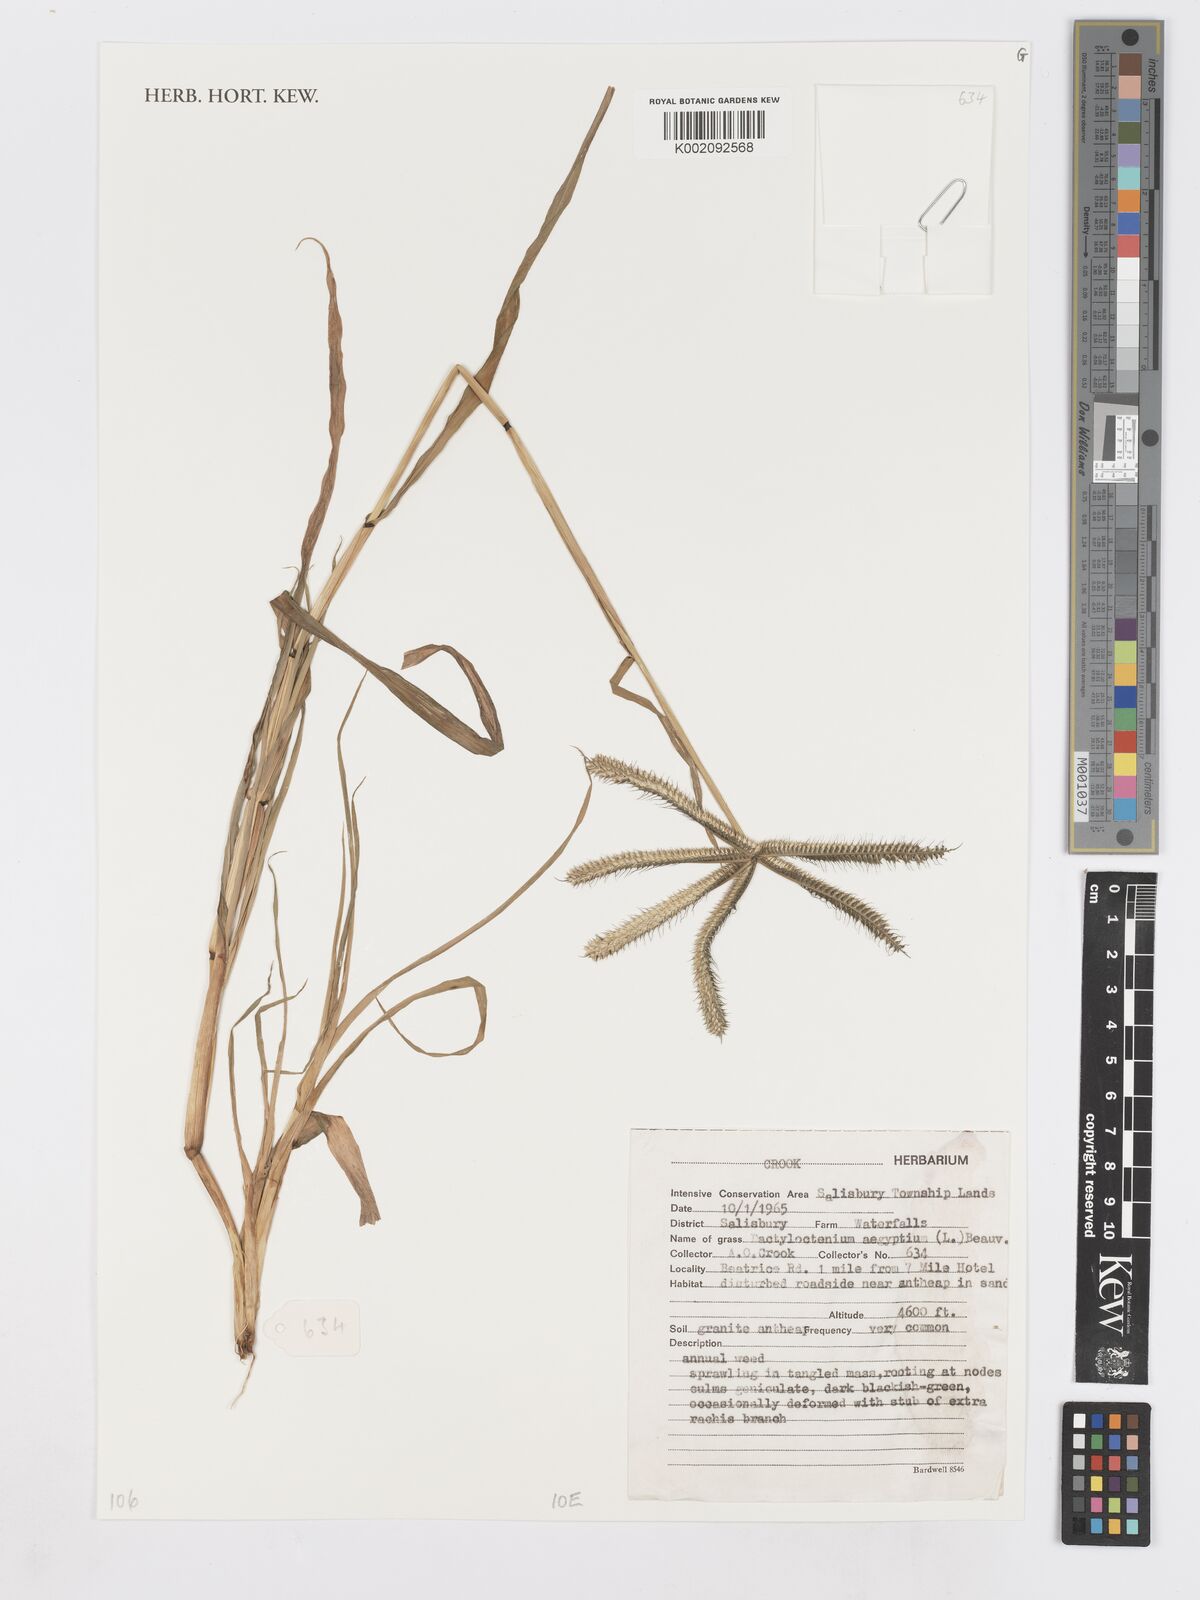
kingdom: Plantae
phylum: Tracheophyta
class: Liliopsida
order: Poales
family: Poaceae
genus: Dactyloctenium
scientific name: Dactyloctenium aegyptium
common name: Egyptian grass
